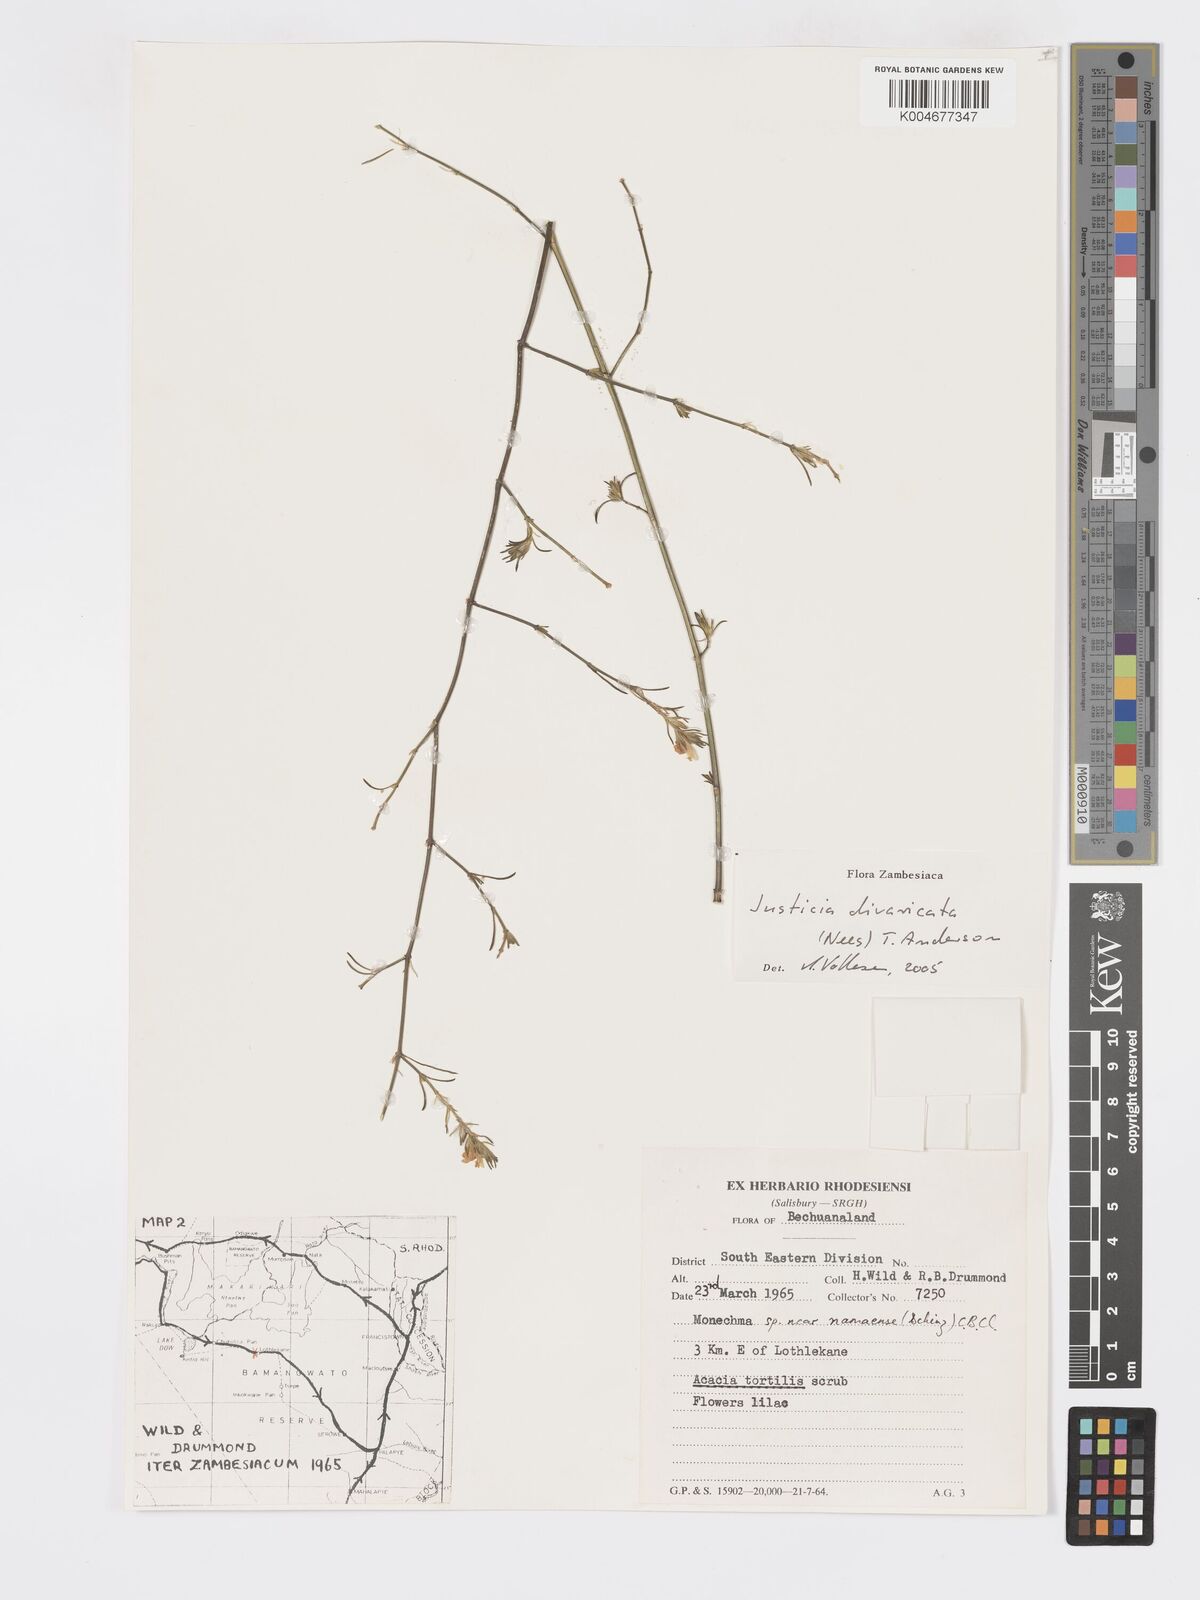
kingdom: Plantae
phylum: Tracheophyta
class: Magnoliopsida
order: Lamiales
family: Acanthaceae
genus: Pogonospermum
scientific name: Pogonospermum
